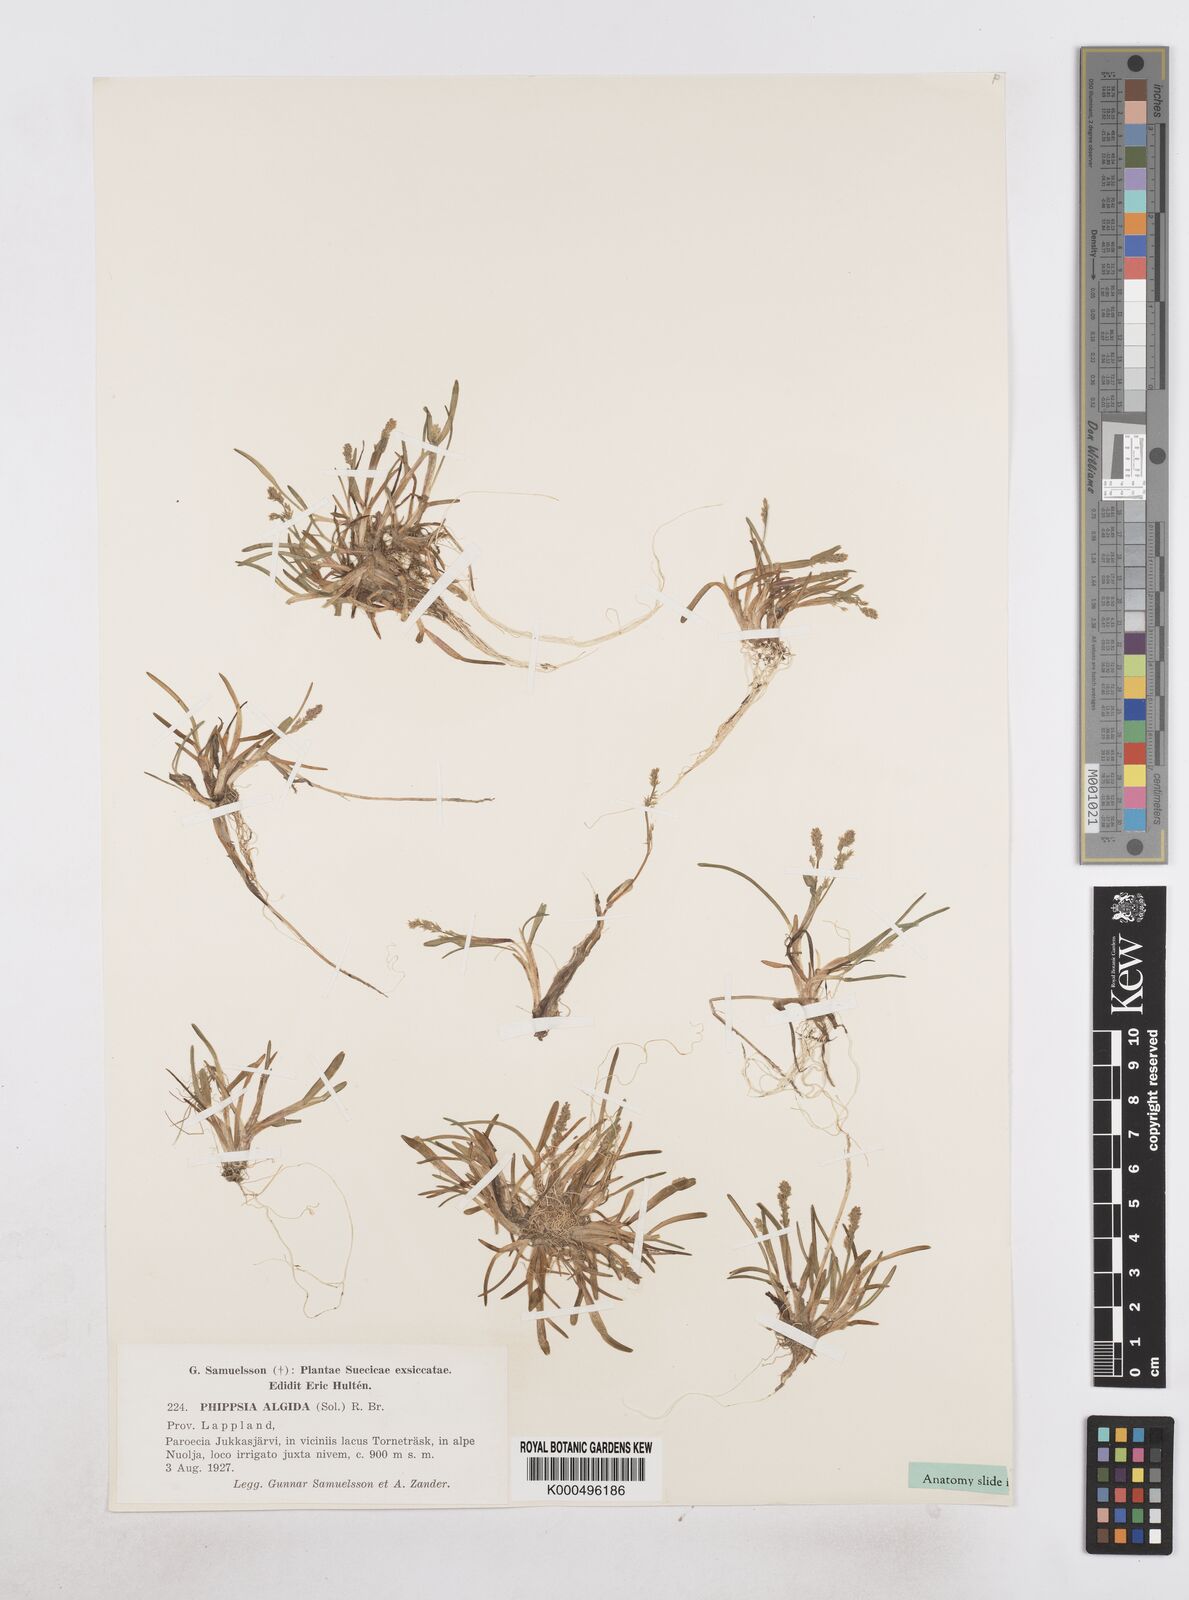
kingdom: Plantae
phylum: Tracheophyta
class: Liliopsida
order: Poales
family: Poaceae
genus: Phippsia
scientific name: Phippsia algida
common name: Ice grass
